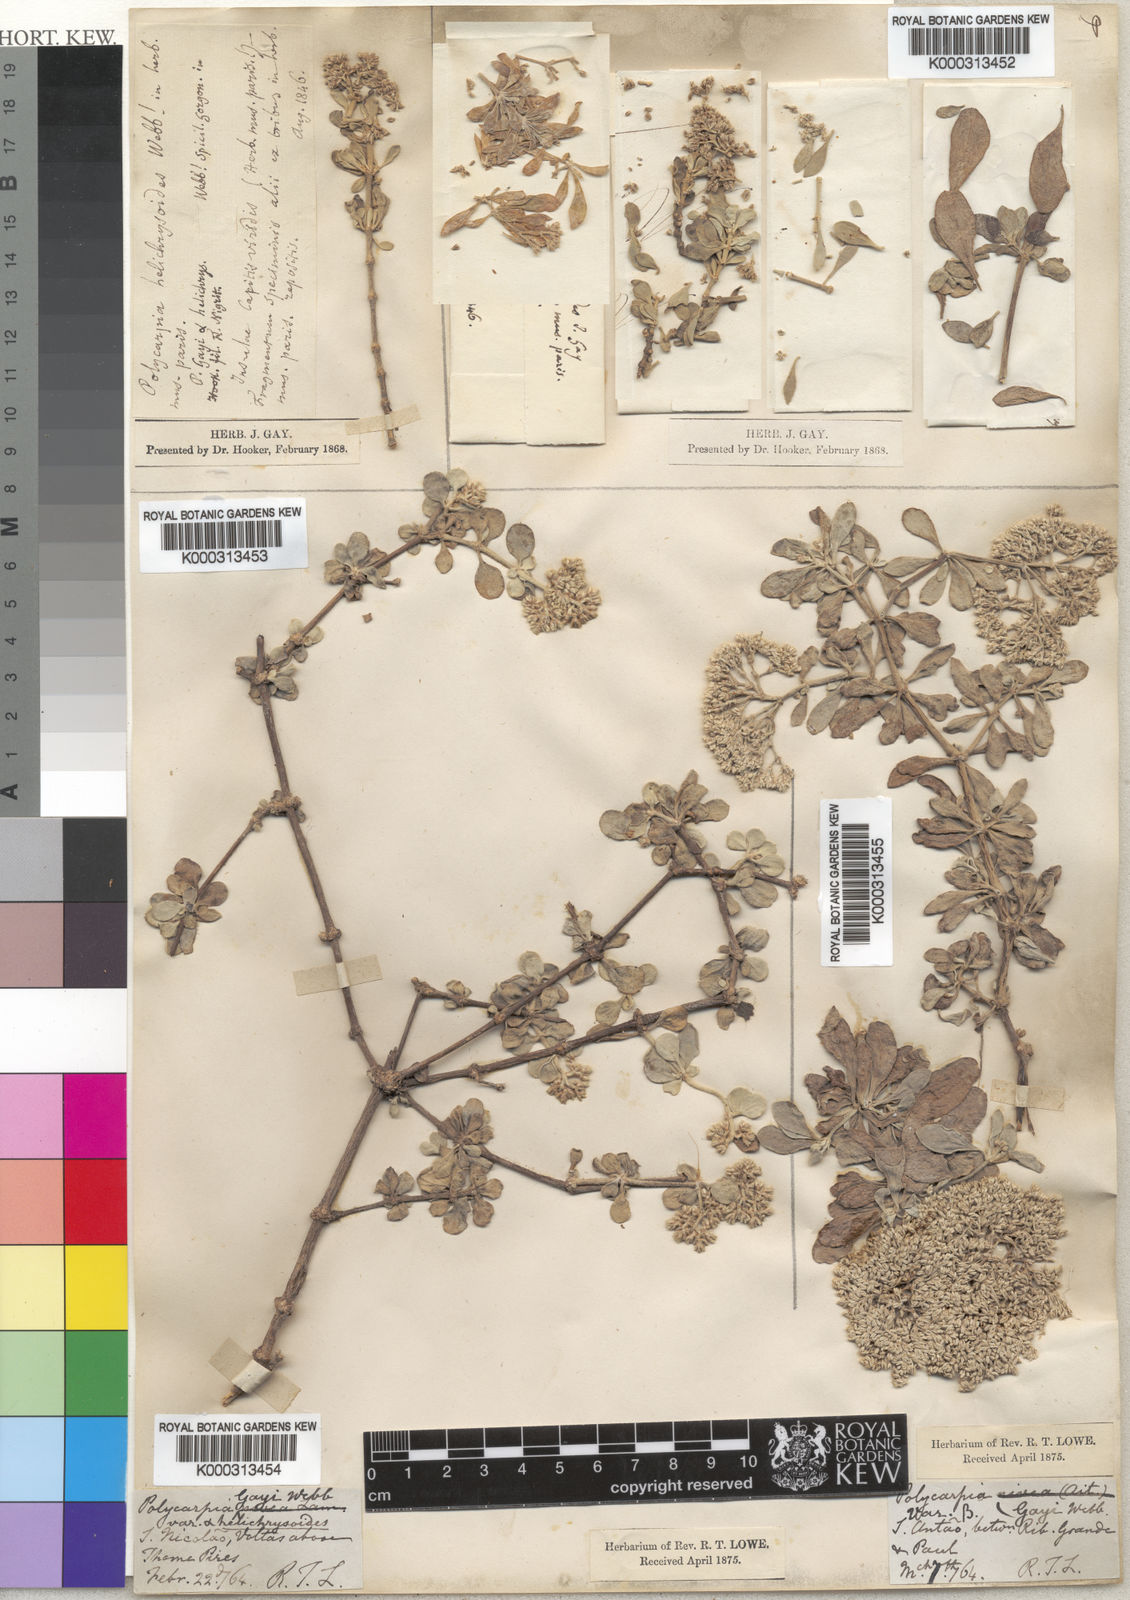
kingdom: Plantae
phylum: Tracheophyta
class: Magnoliopsida
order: Caryophyllales
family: Caryophyllaceae
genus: Polycarpaea
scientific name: Polycarpaea
